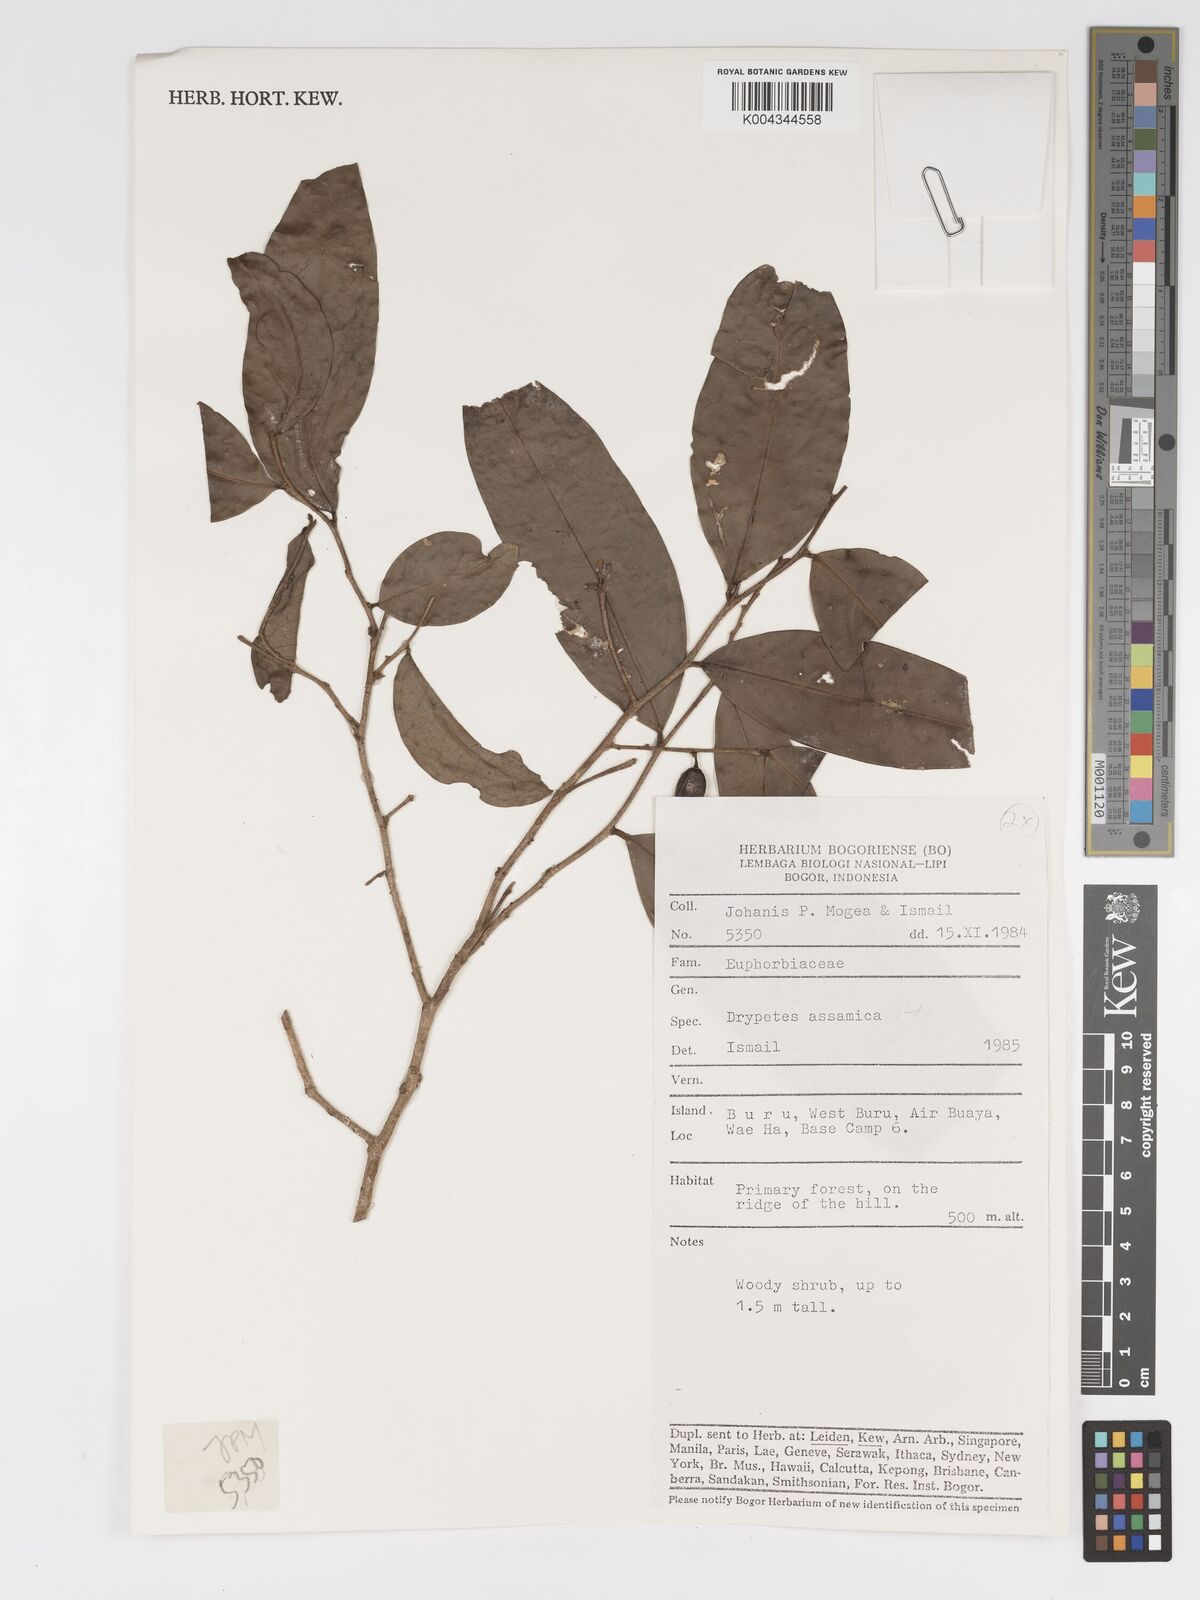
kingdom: Plantae
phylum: Tracheophyta
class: Magnoliopsida
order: Malpighiales
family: Putranjivaceae
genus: Drypetes
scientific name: Drypetes assamica
